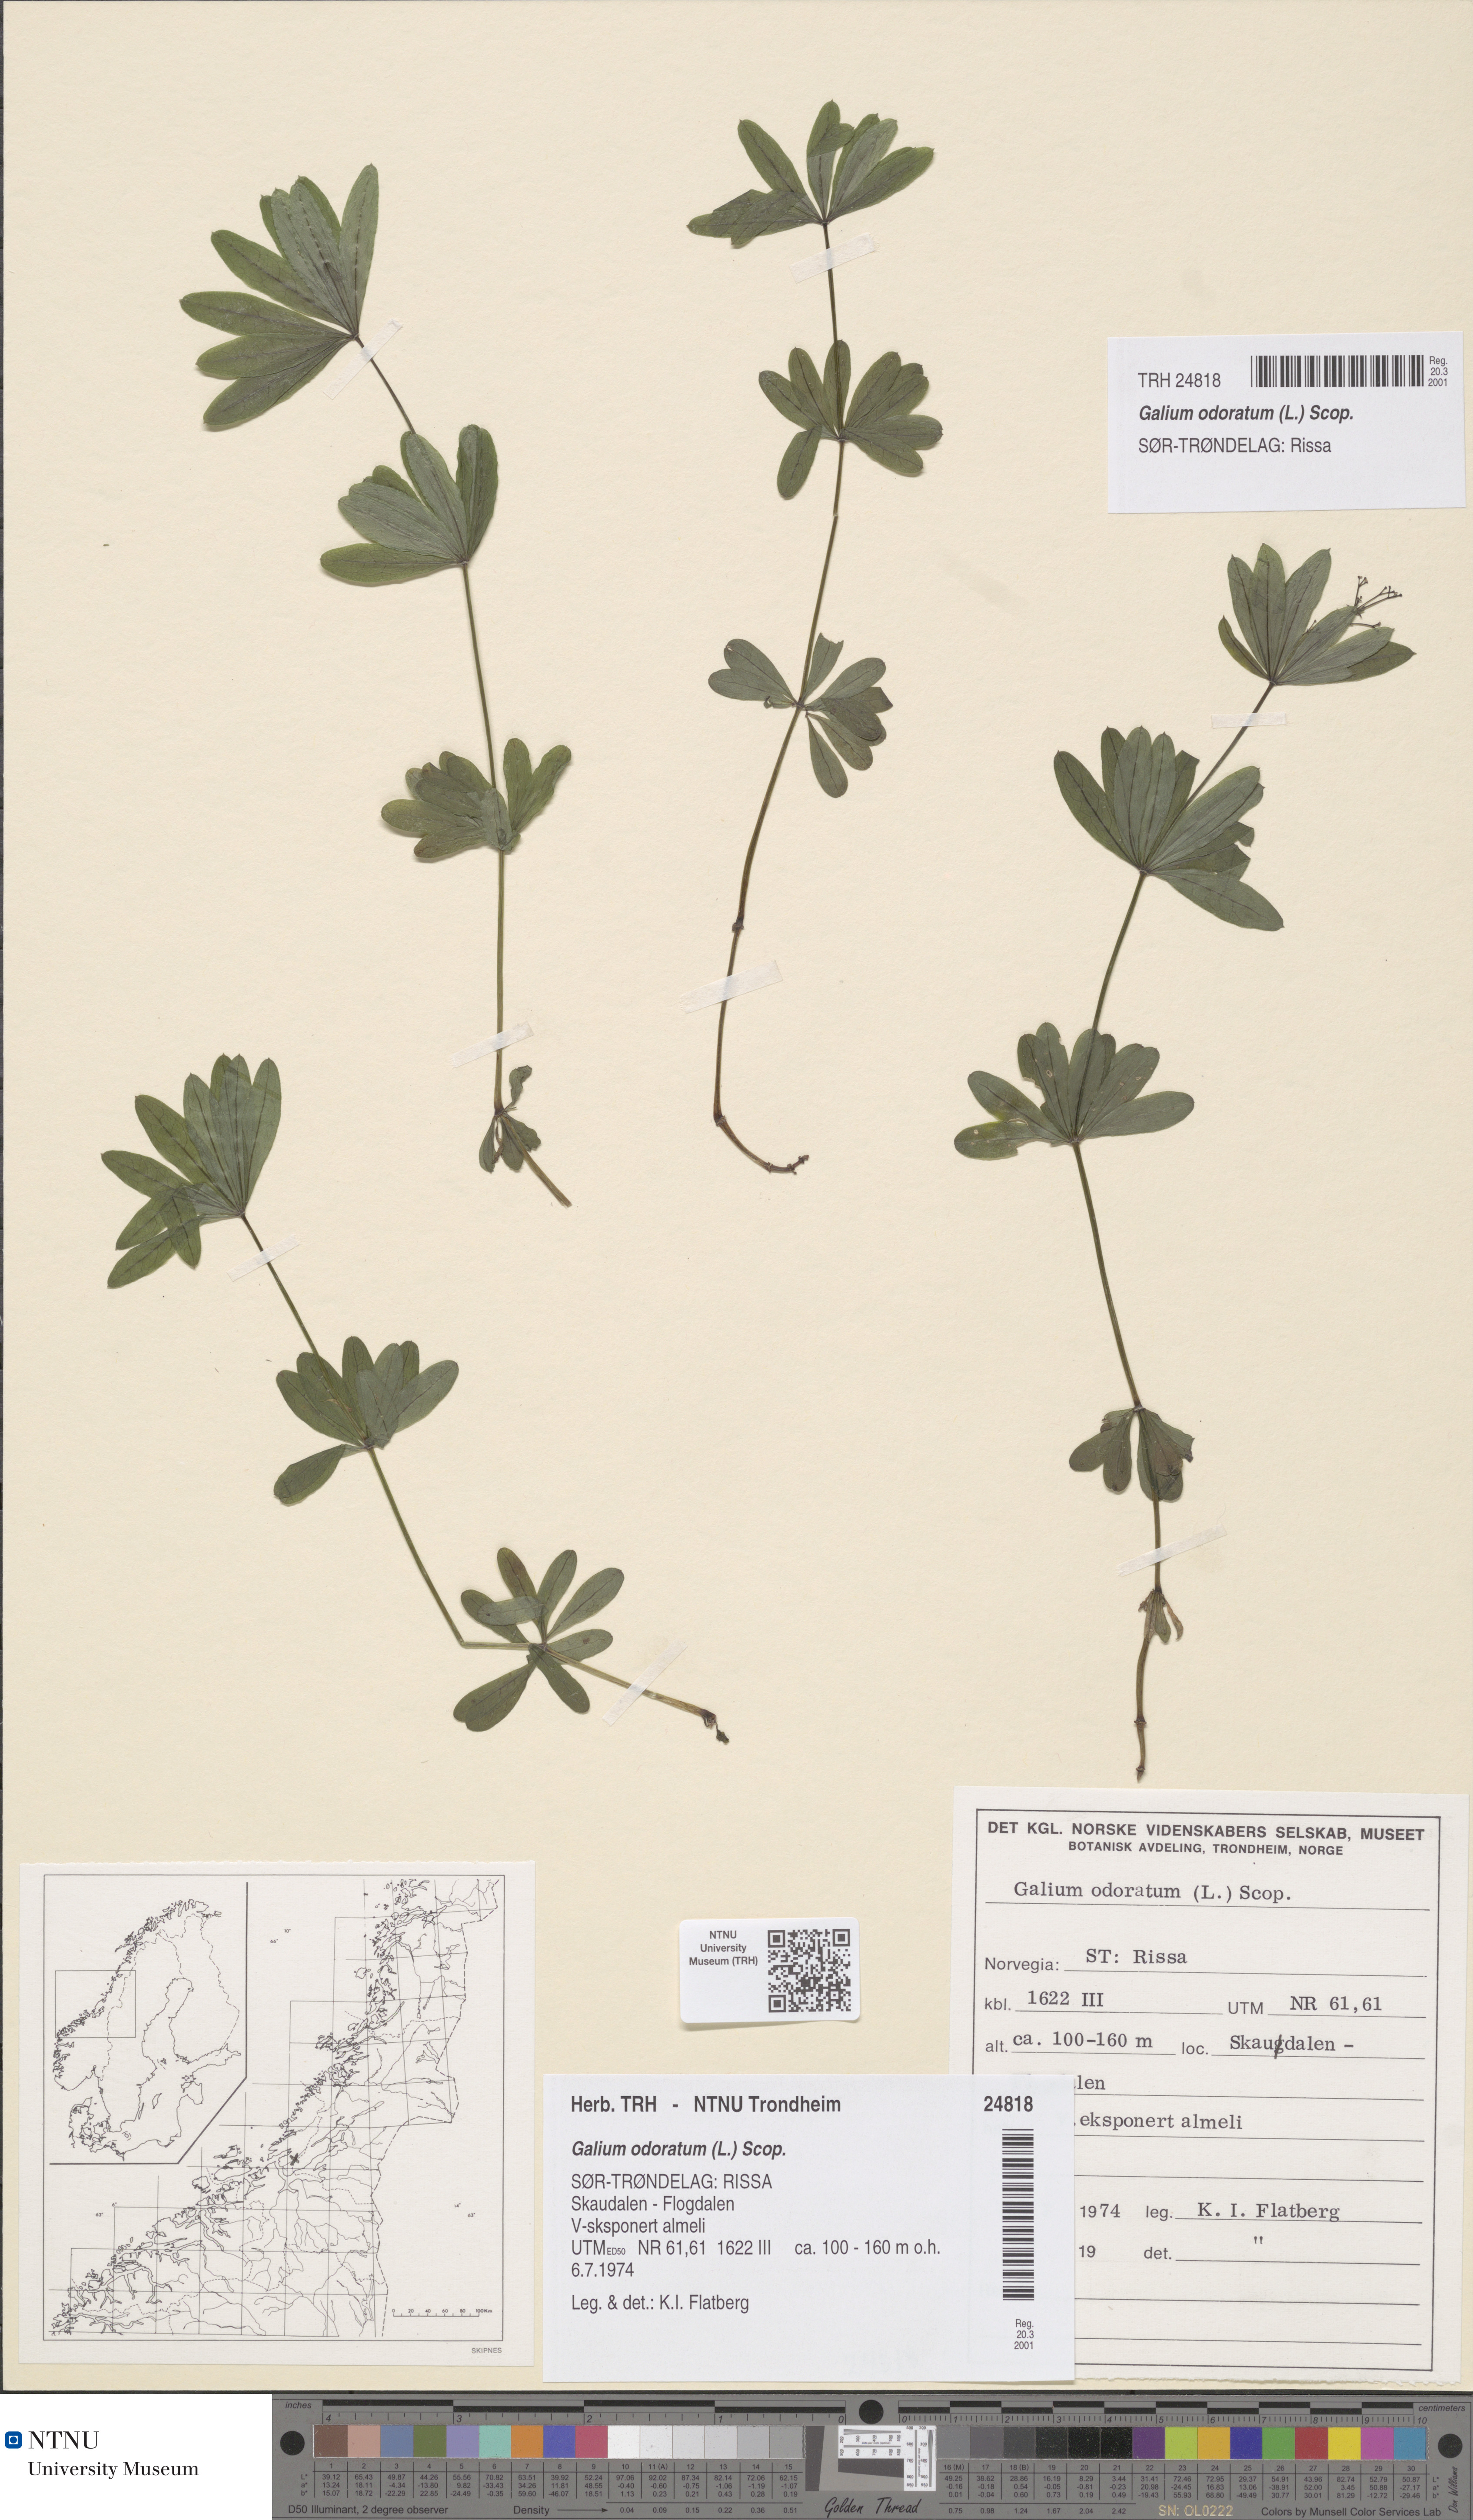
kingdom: Plantae
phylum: Tracheophyta
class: Magnoliopsida
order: Gentianales
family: Rubiaceae
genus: Galium
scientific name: Galium odoratum
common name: Sweet woodruff
